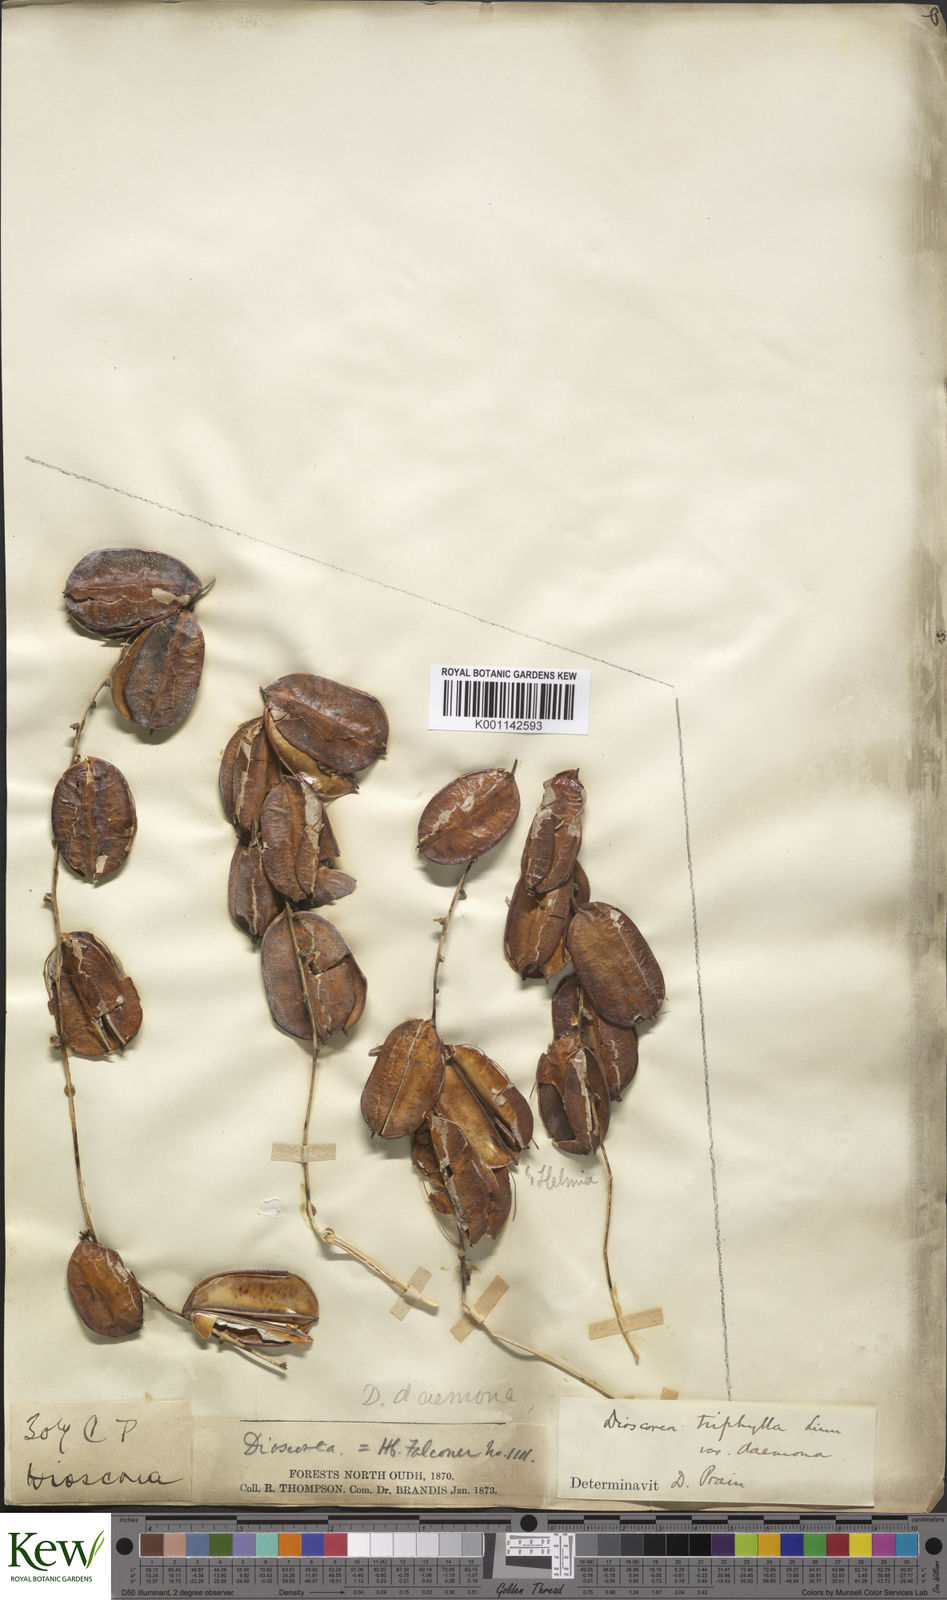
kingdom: Plantae
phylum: Tracheophyta
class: Liliopsida
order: Dioscoreales
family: Dioscoreaceae
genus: Dioscorea
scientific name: Dioscorea pentaphylla
